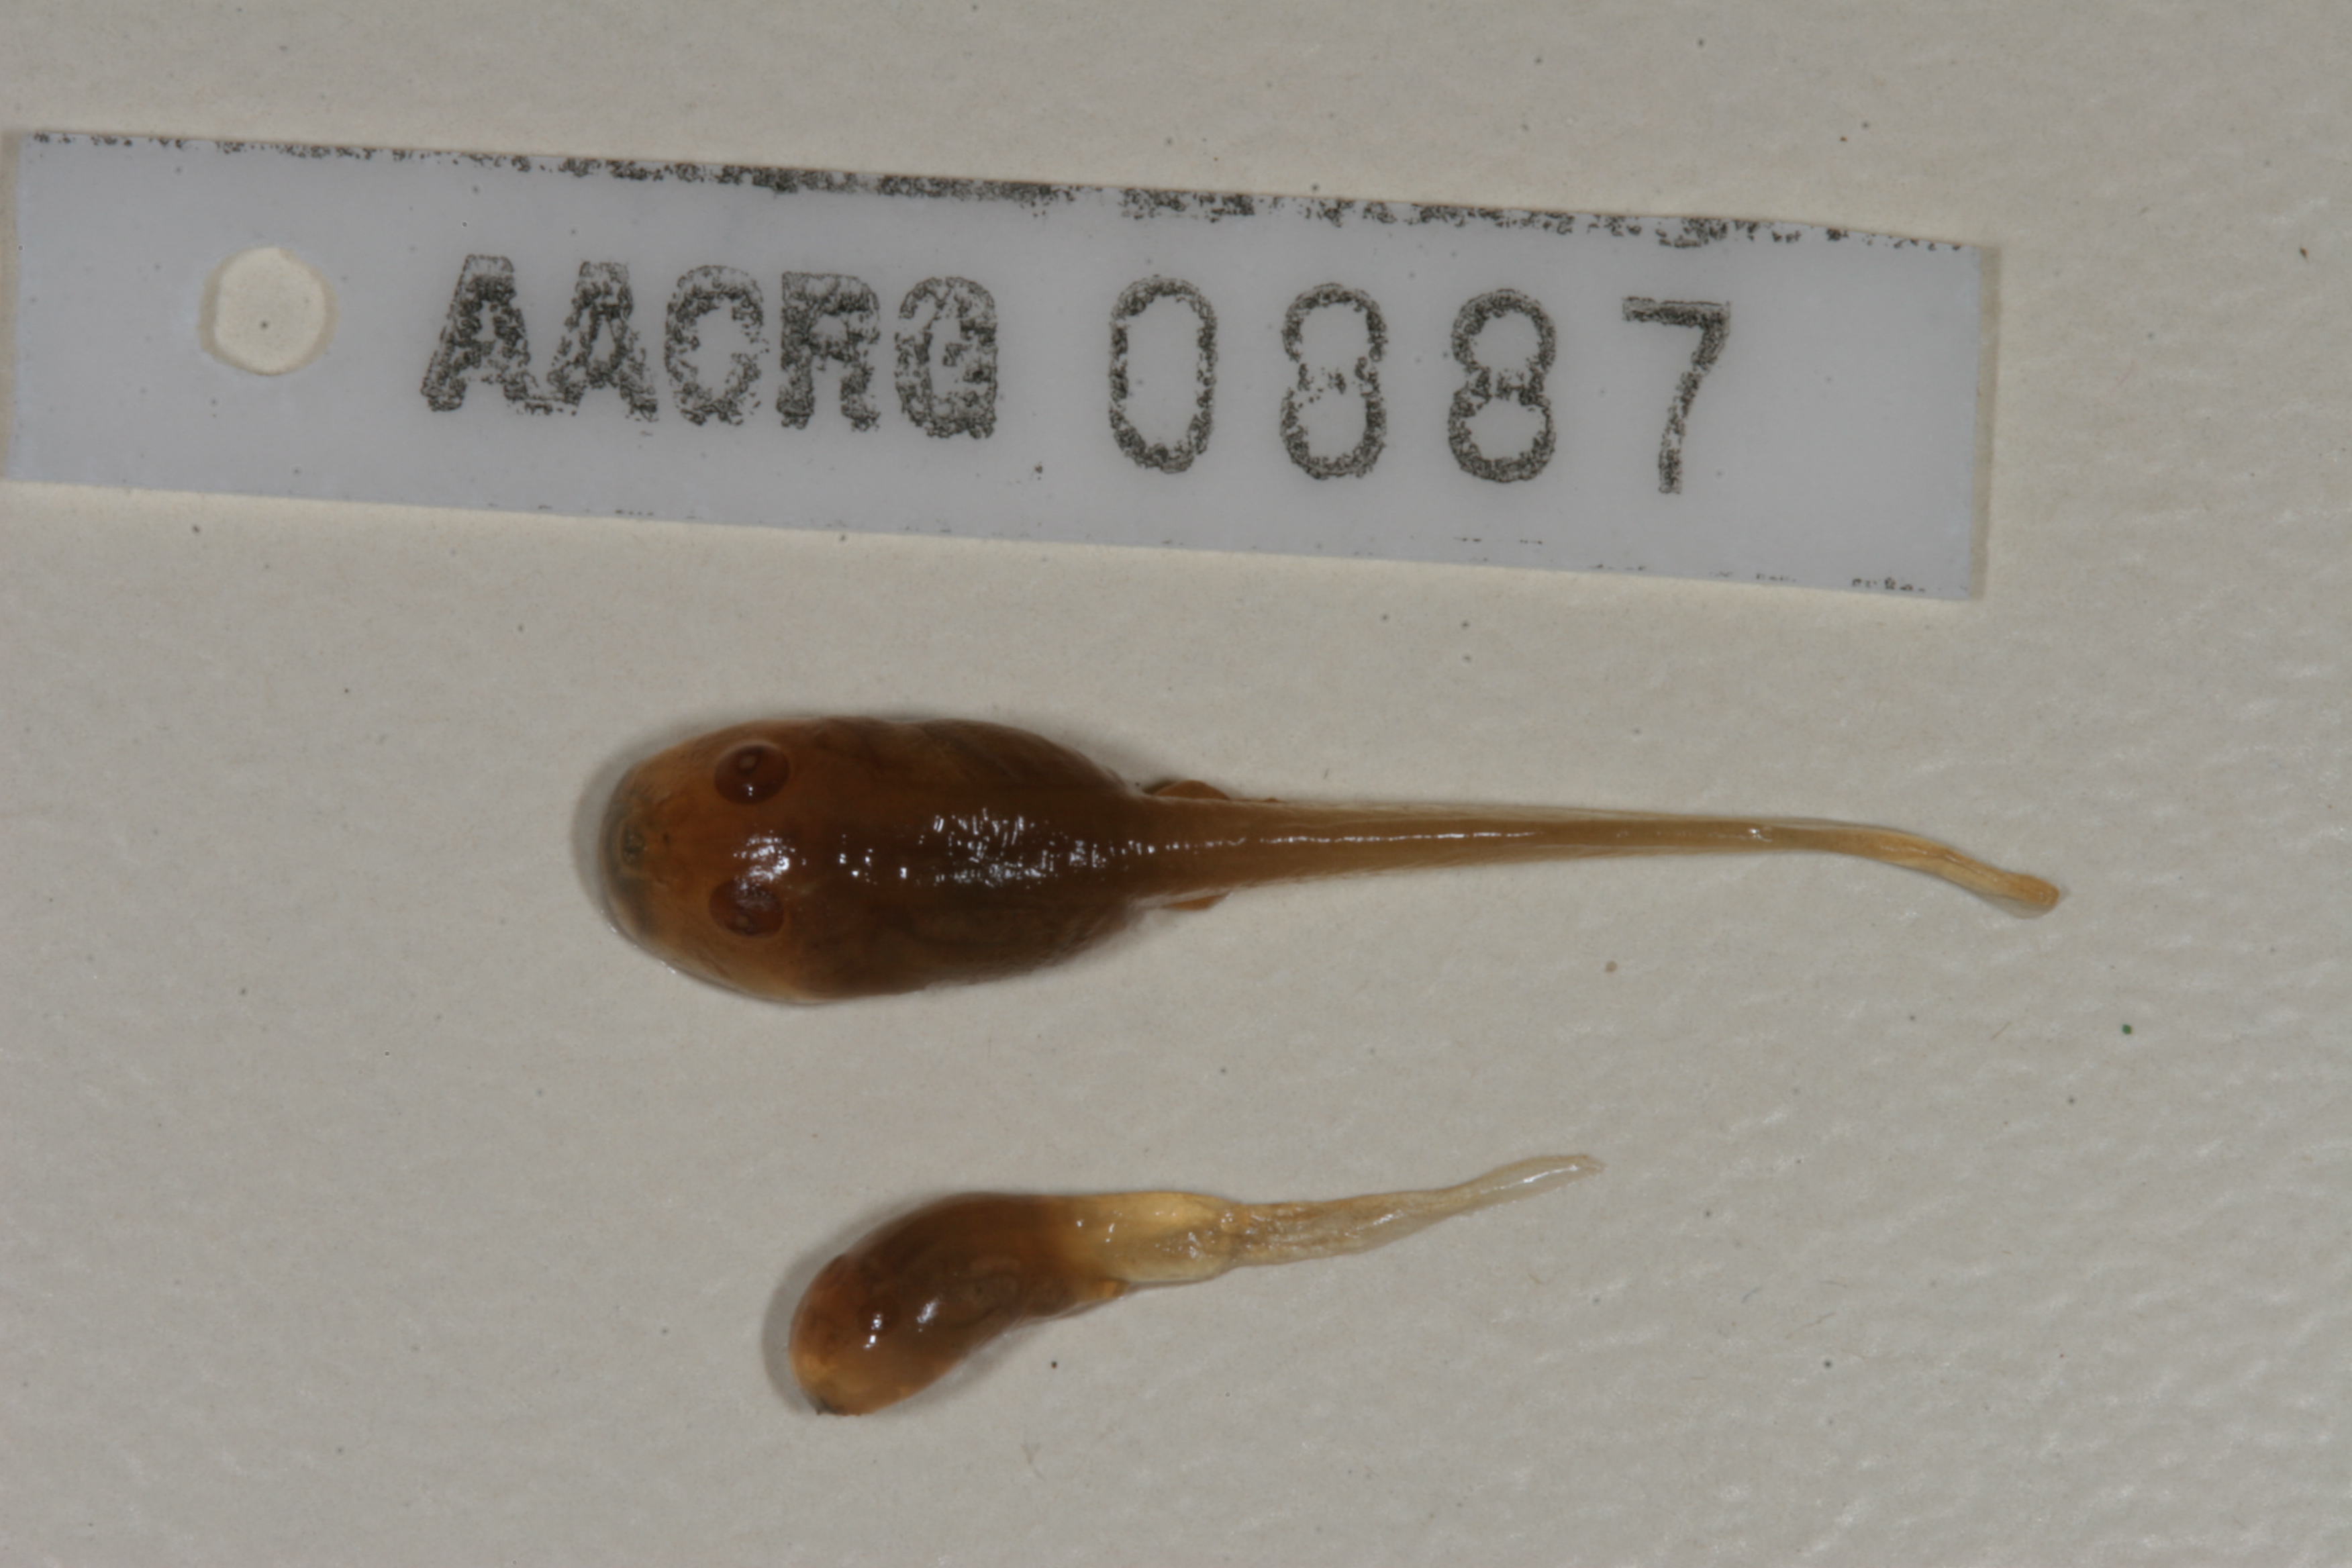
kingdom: Animalia
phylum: Chordata
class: Amphibia
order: Anura
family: Bufonidae
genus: Vandijkophrynus
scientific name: Vandijkophrynus gariepensis
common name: Gariep toad
